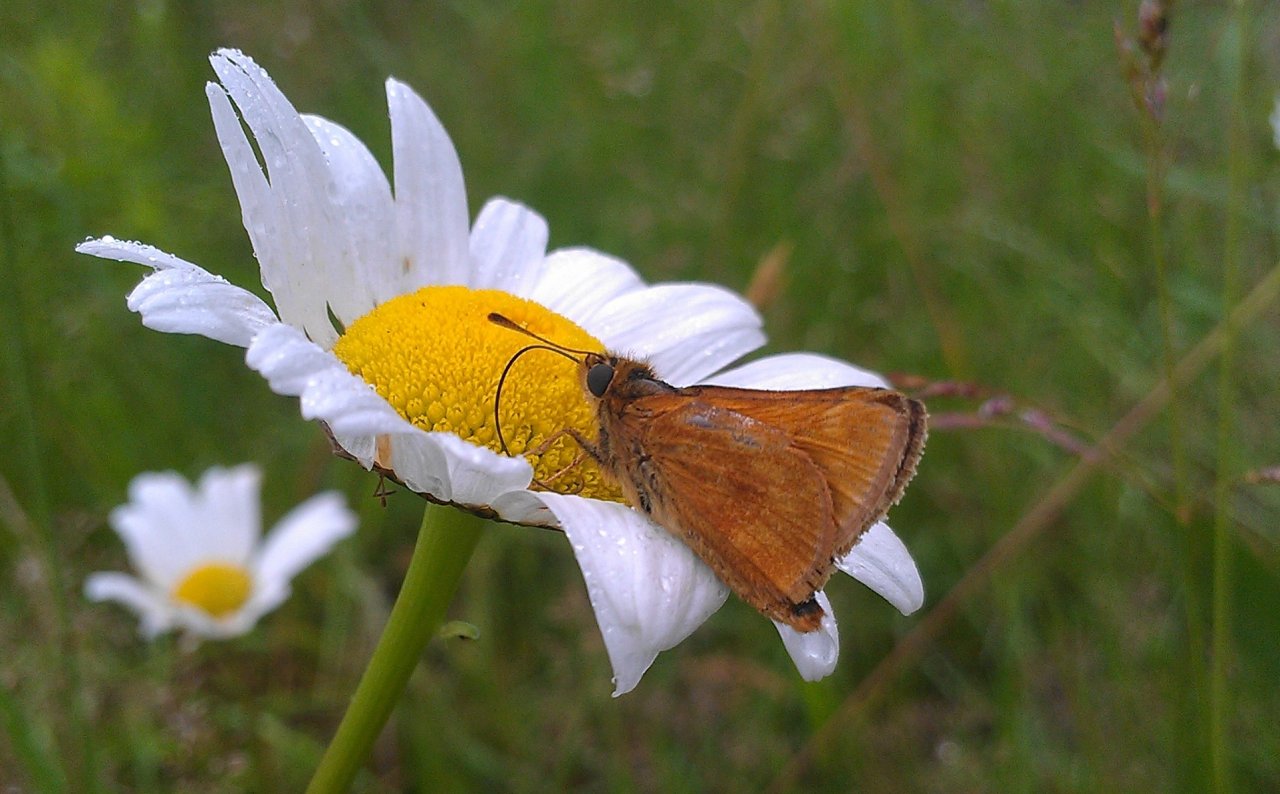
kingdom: Animalia
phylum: Arthropoda
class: Insecta
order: Lepidoptera
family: Hesperiidae
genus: Polites
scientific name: Polites
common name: Long Dash Skipper
